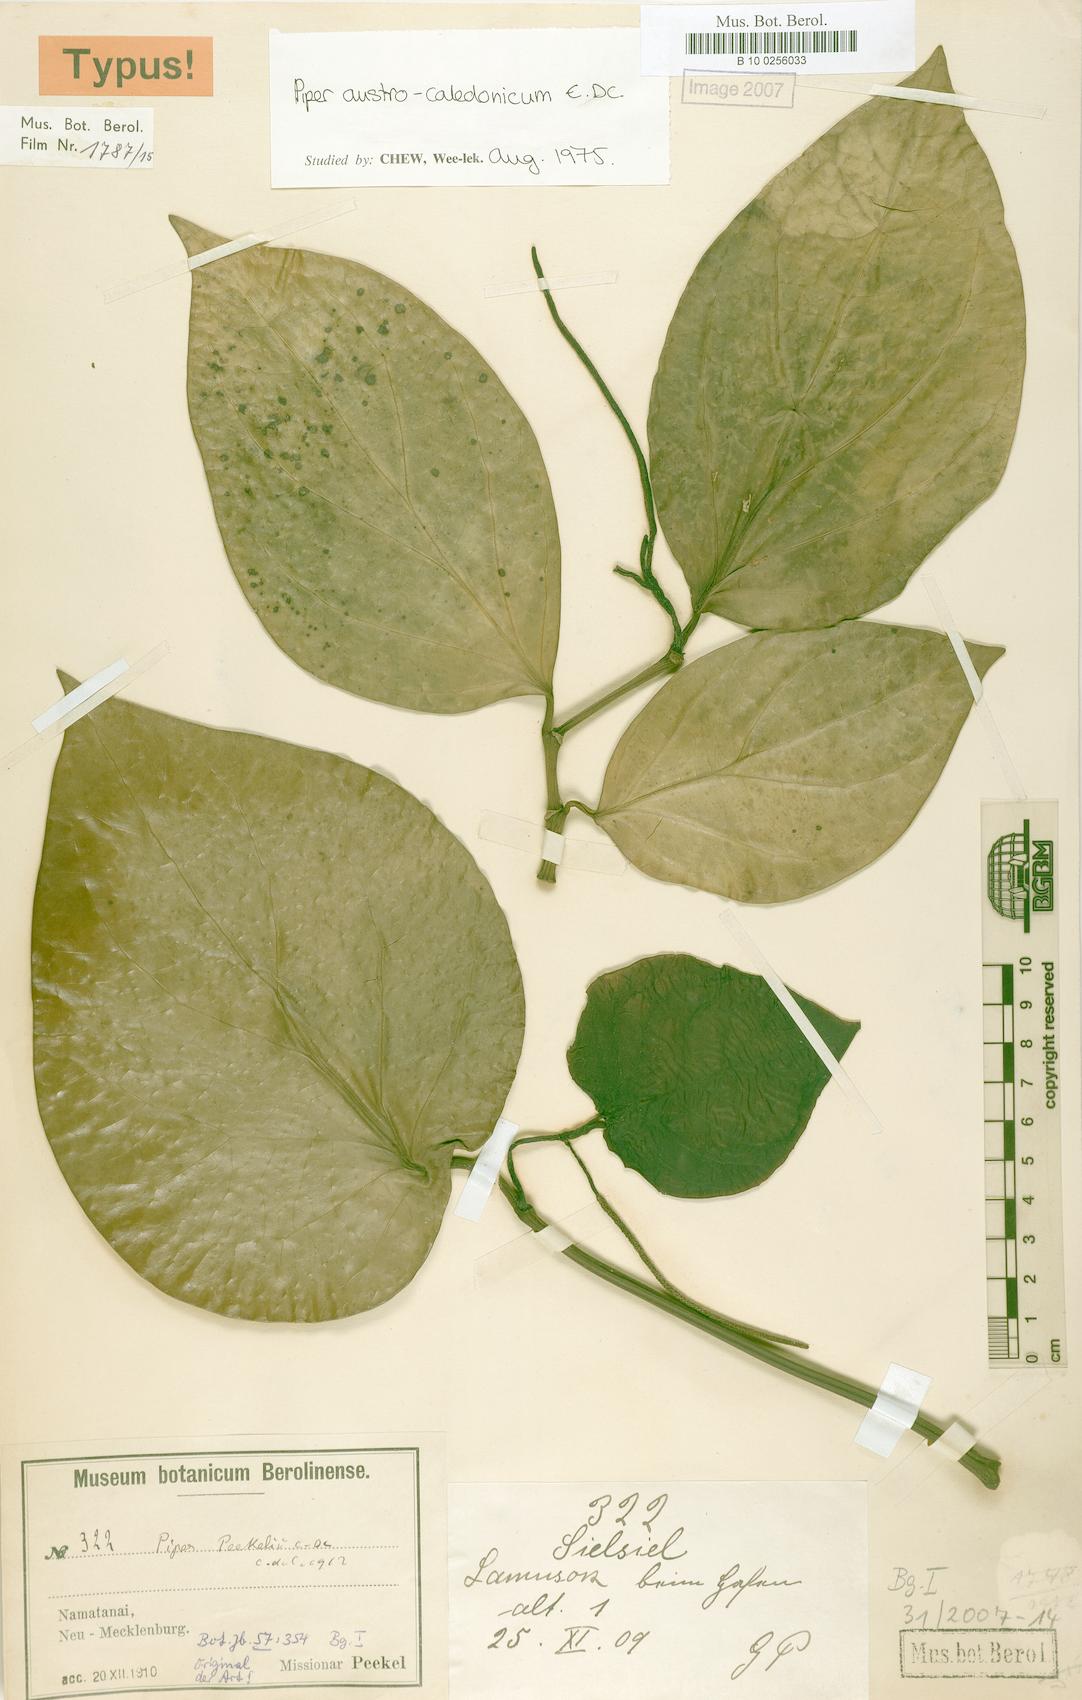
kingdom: Plantae
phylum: Tracheophyta
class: Magnoliopsida
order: Piperales
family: Piperaceae
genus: Piper
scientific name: Piper insectifugum
